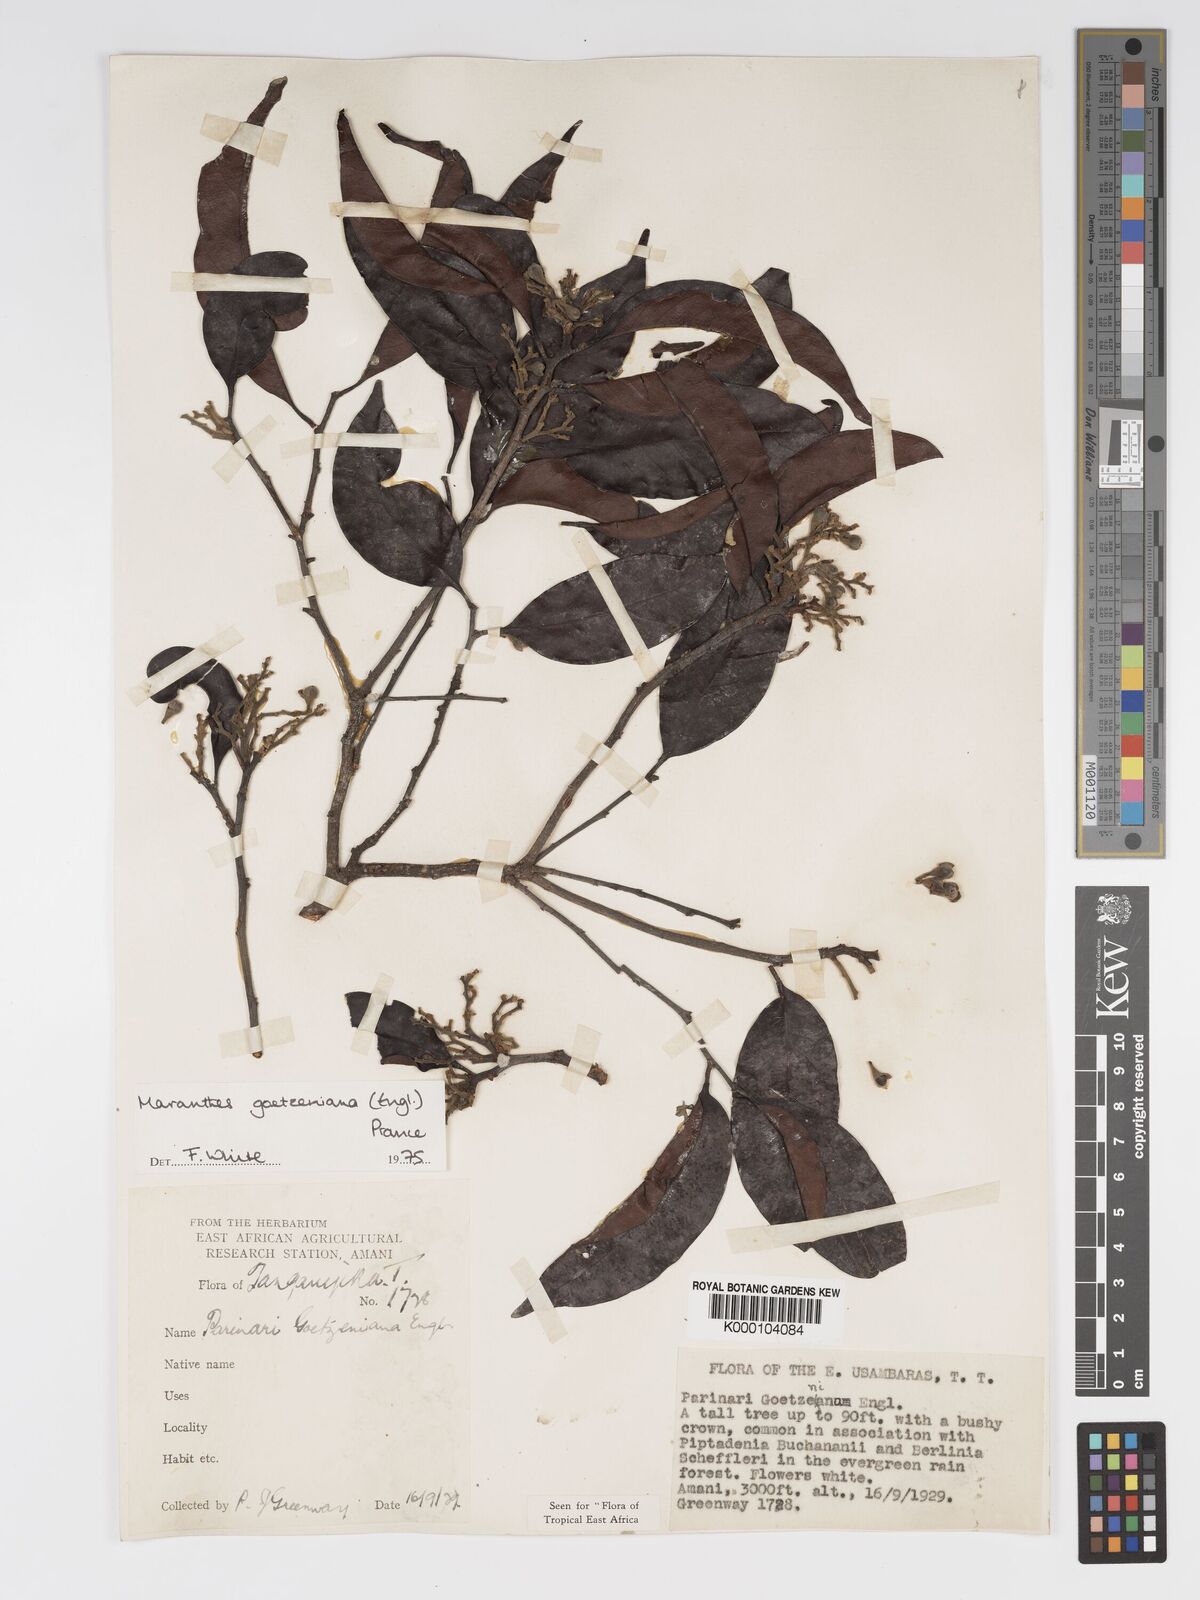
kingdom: Plantae
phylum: Tracheophyta
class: Magnoliopsida
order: Malpighiales
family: Chrysobalanaceae
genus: Maranthes
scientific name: Maranthes goetzeniana
